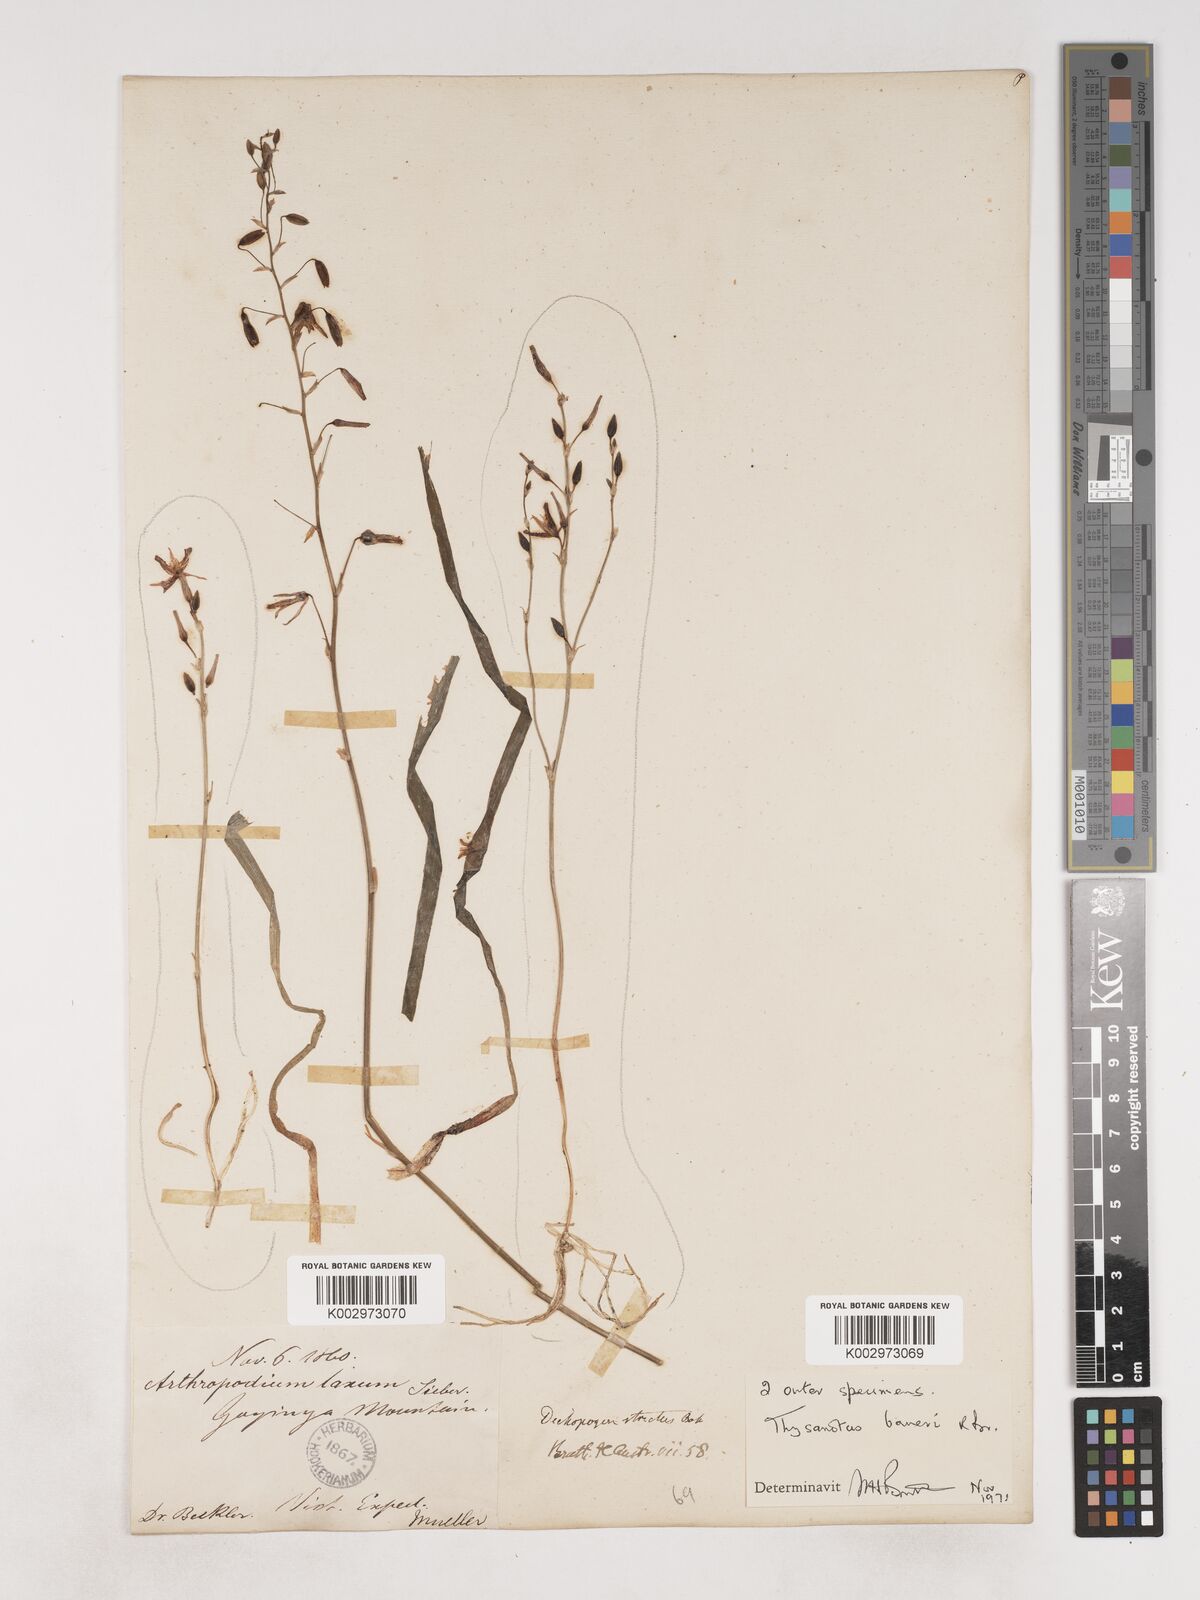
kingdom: Plantae
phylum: Tracheophyta
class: Liliopsida
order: Asparagales
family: Asparagaceae
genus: Thysanotus
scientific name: Thysanotus baueri
